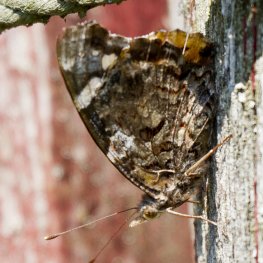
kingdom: Animalia
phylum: Arthropoda
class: Insecta
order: Lepidoptera
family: Nymphalidae
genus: Vanessa
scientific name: Vanessa atalanta
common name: Red Admiral
